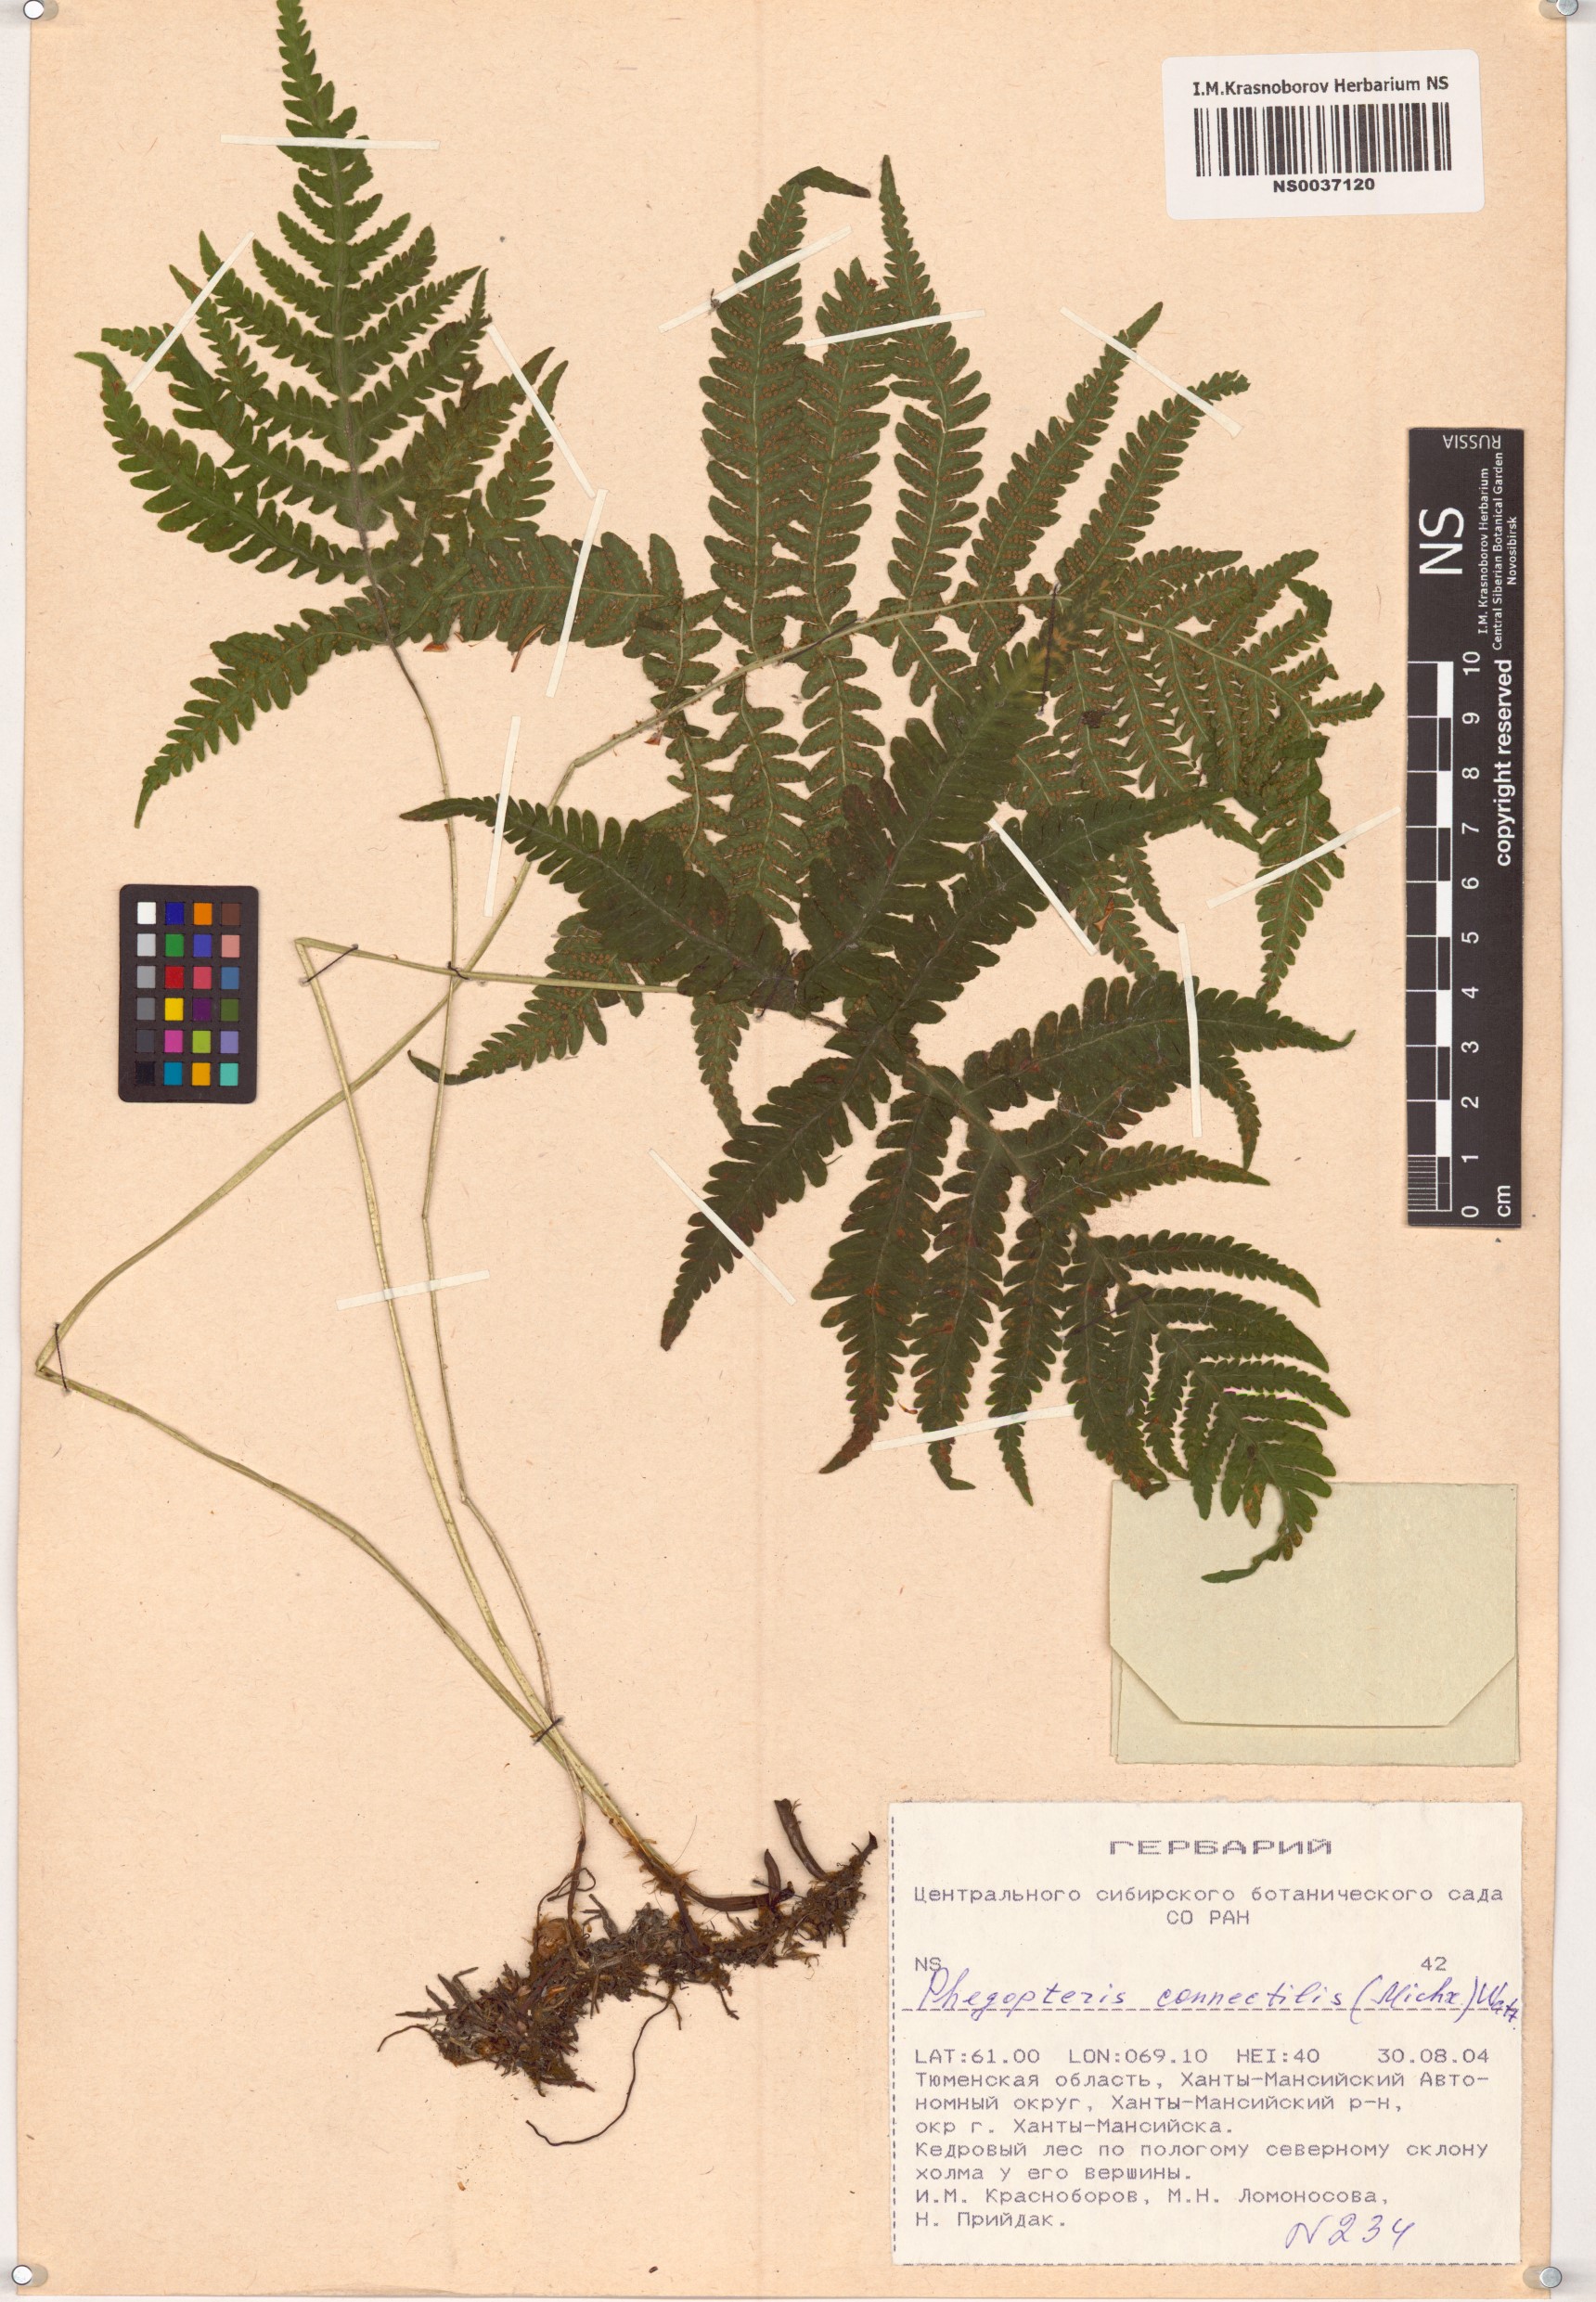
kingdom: Plantae
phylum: Tracheophyta
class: Polypodiopsida
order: Polypodiales
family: Thelypteridaceae
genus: Phegopteris
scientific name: Phegopteris connectilis
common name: Beech fern
